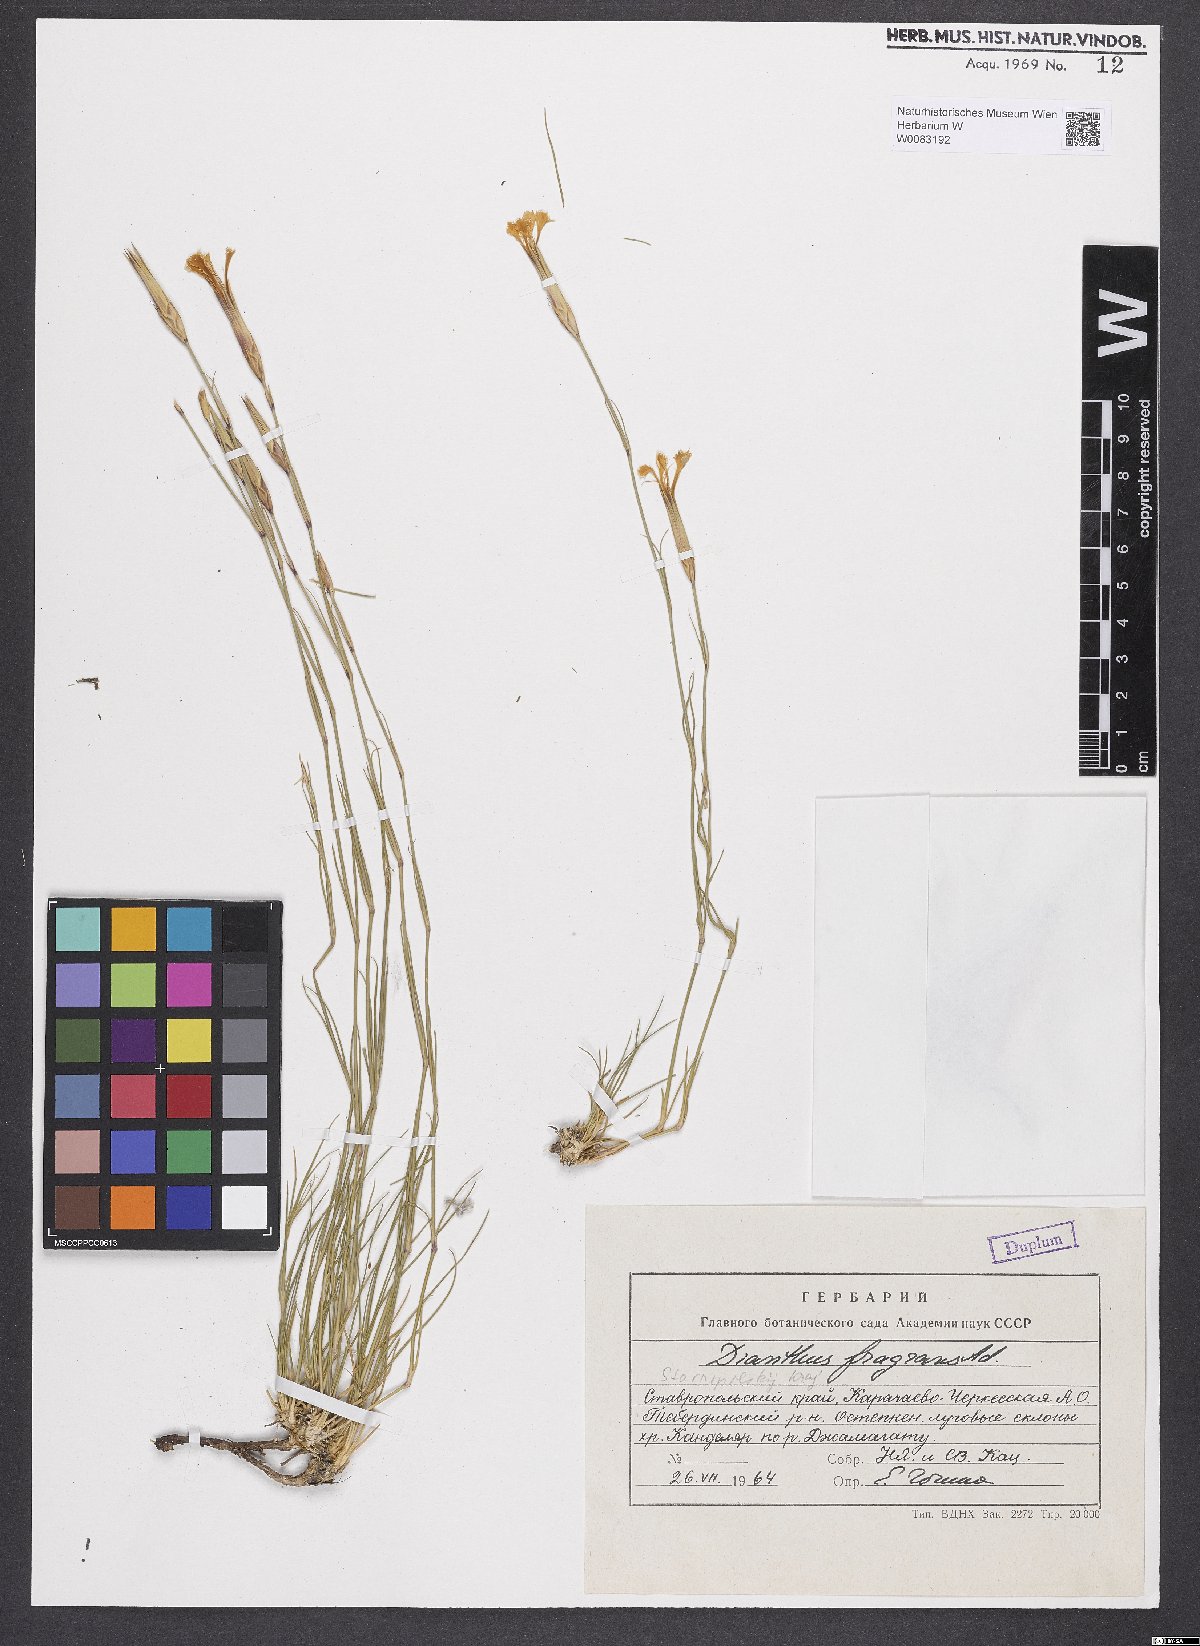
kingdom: Plantae
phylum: Tracheophyta
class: Magnoliopsida
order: Caryophyllales
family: Caryophyllaceae
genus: Dianthus
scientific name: Dianthus fragrans
